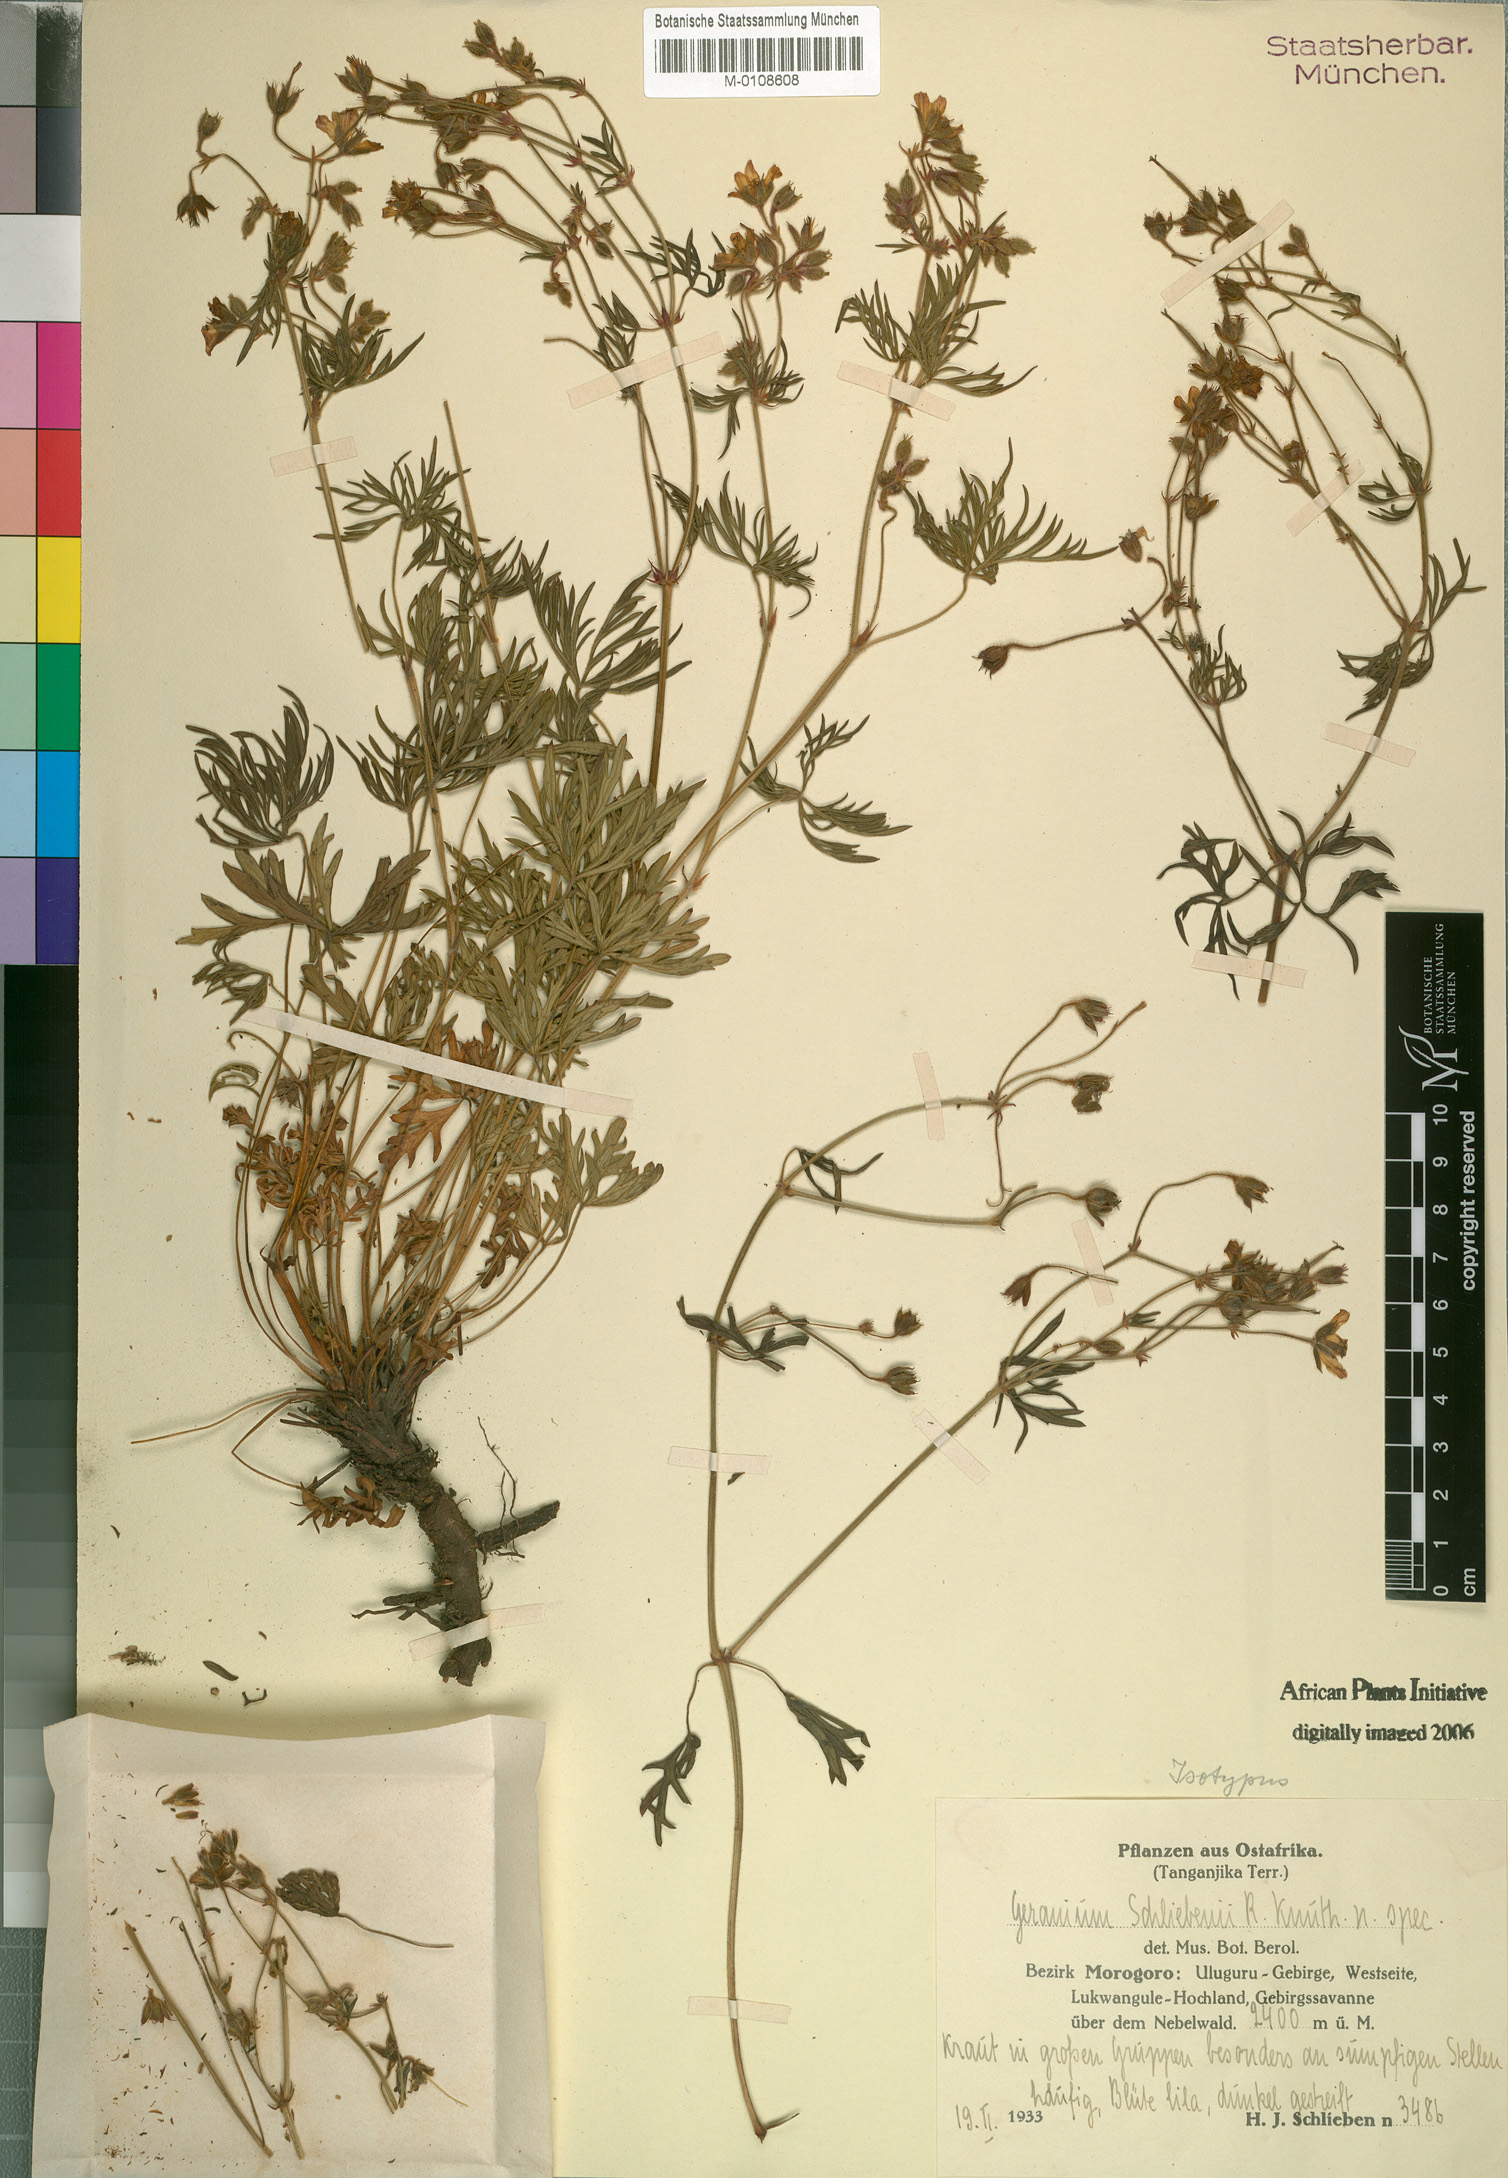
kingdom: Plantae
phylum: Tracheophyta
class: Magnoliopsida
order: Geraniales
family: Geraniaceae
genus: Geranium
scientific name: Geranium vagans
